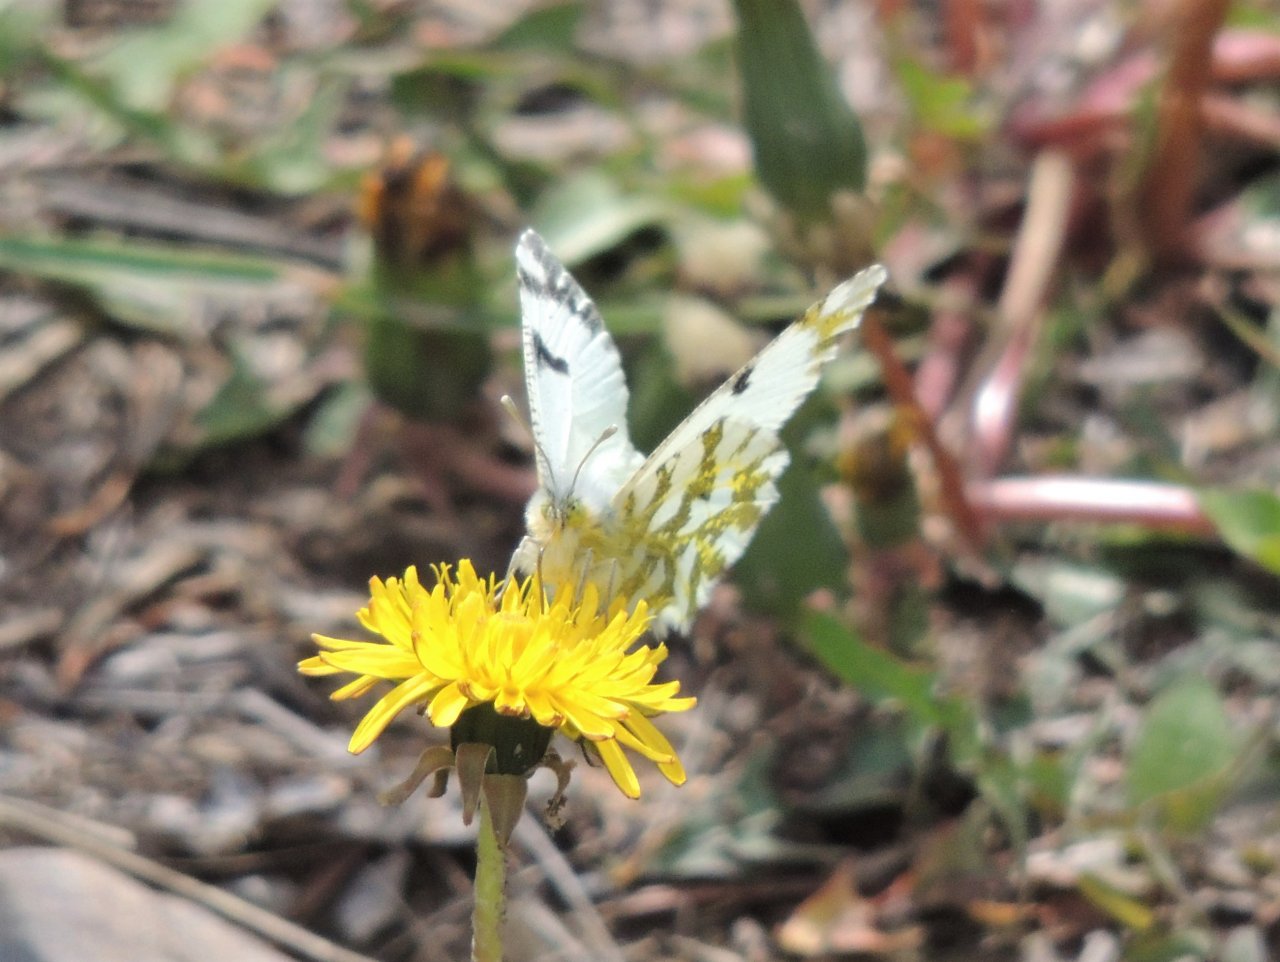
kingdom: Animalia
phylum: Arthropoda
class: Insecta
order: Lepidoptera
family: Pieridae
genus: Euchloe
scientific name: Euchloe lotta
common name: Desert Marble
